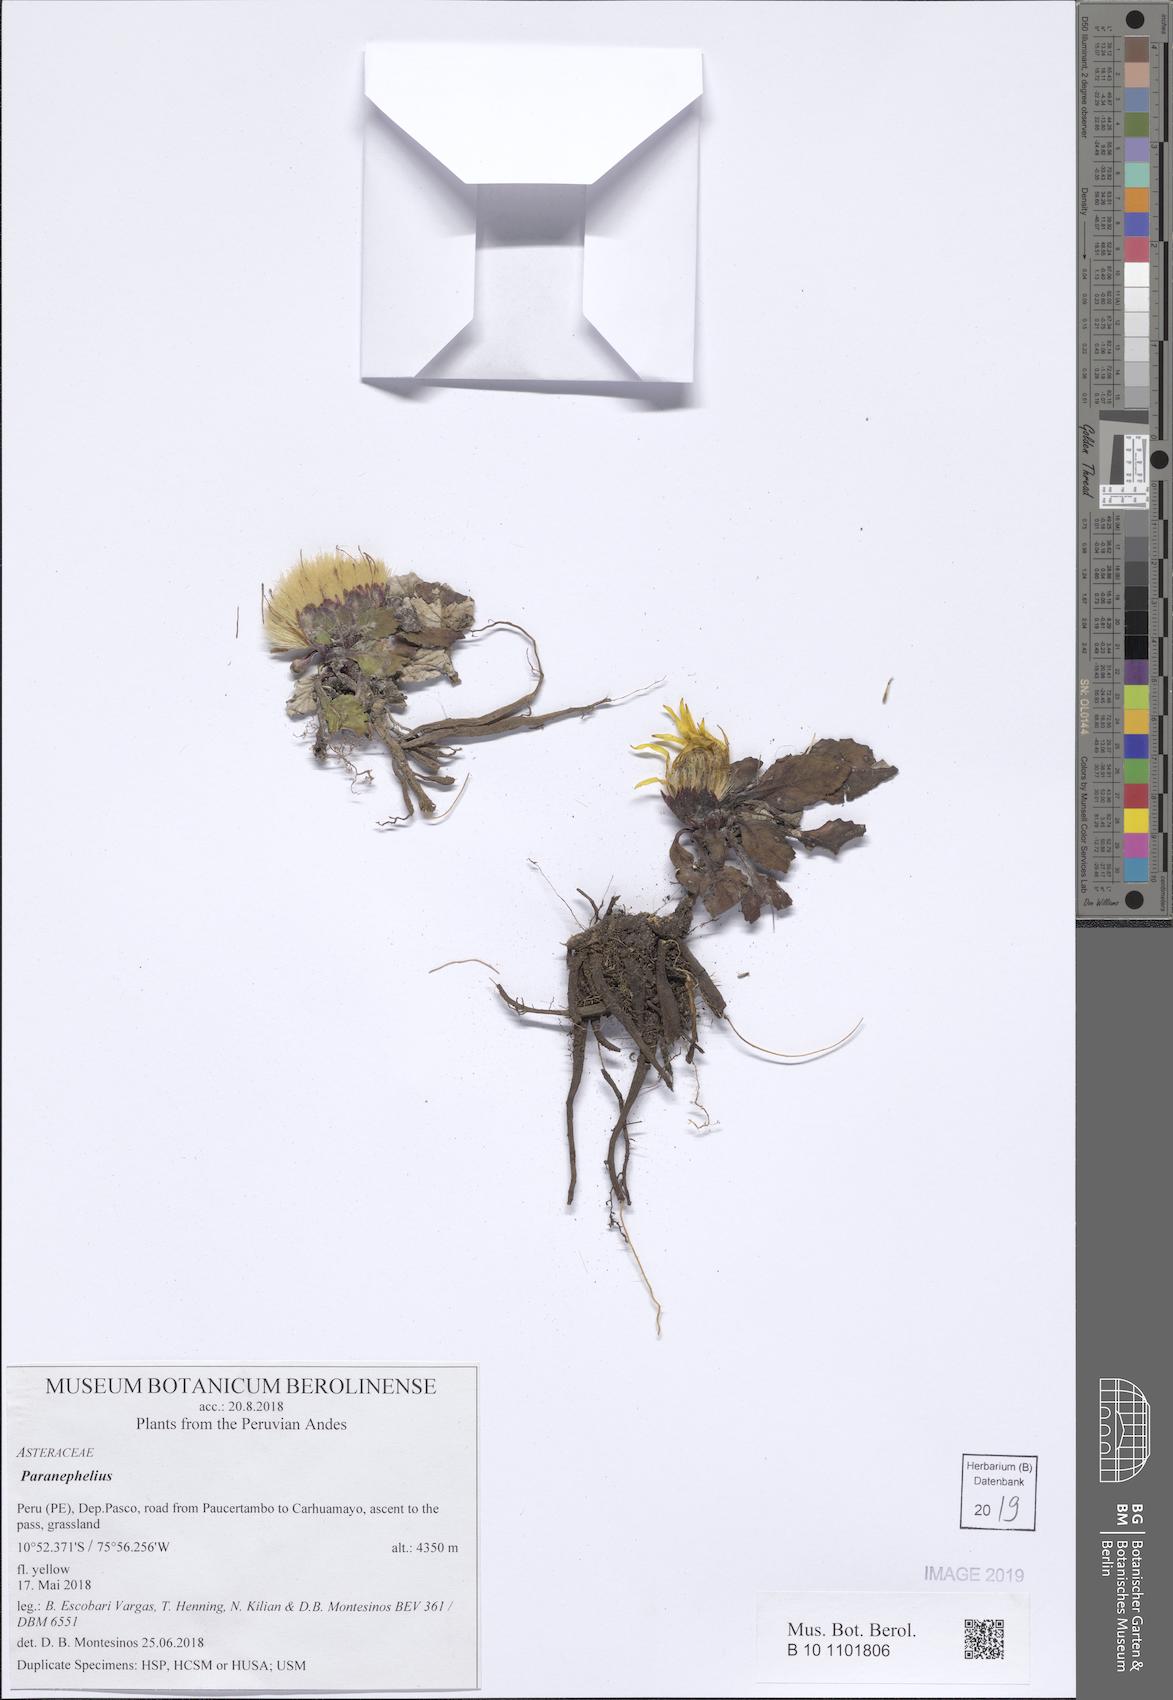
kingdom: Plantae
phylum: Tracheophyta
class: Magnoliopsida
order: Asterales
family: Asteraceae
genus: Paranephelius
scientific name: Paranephelius
